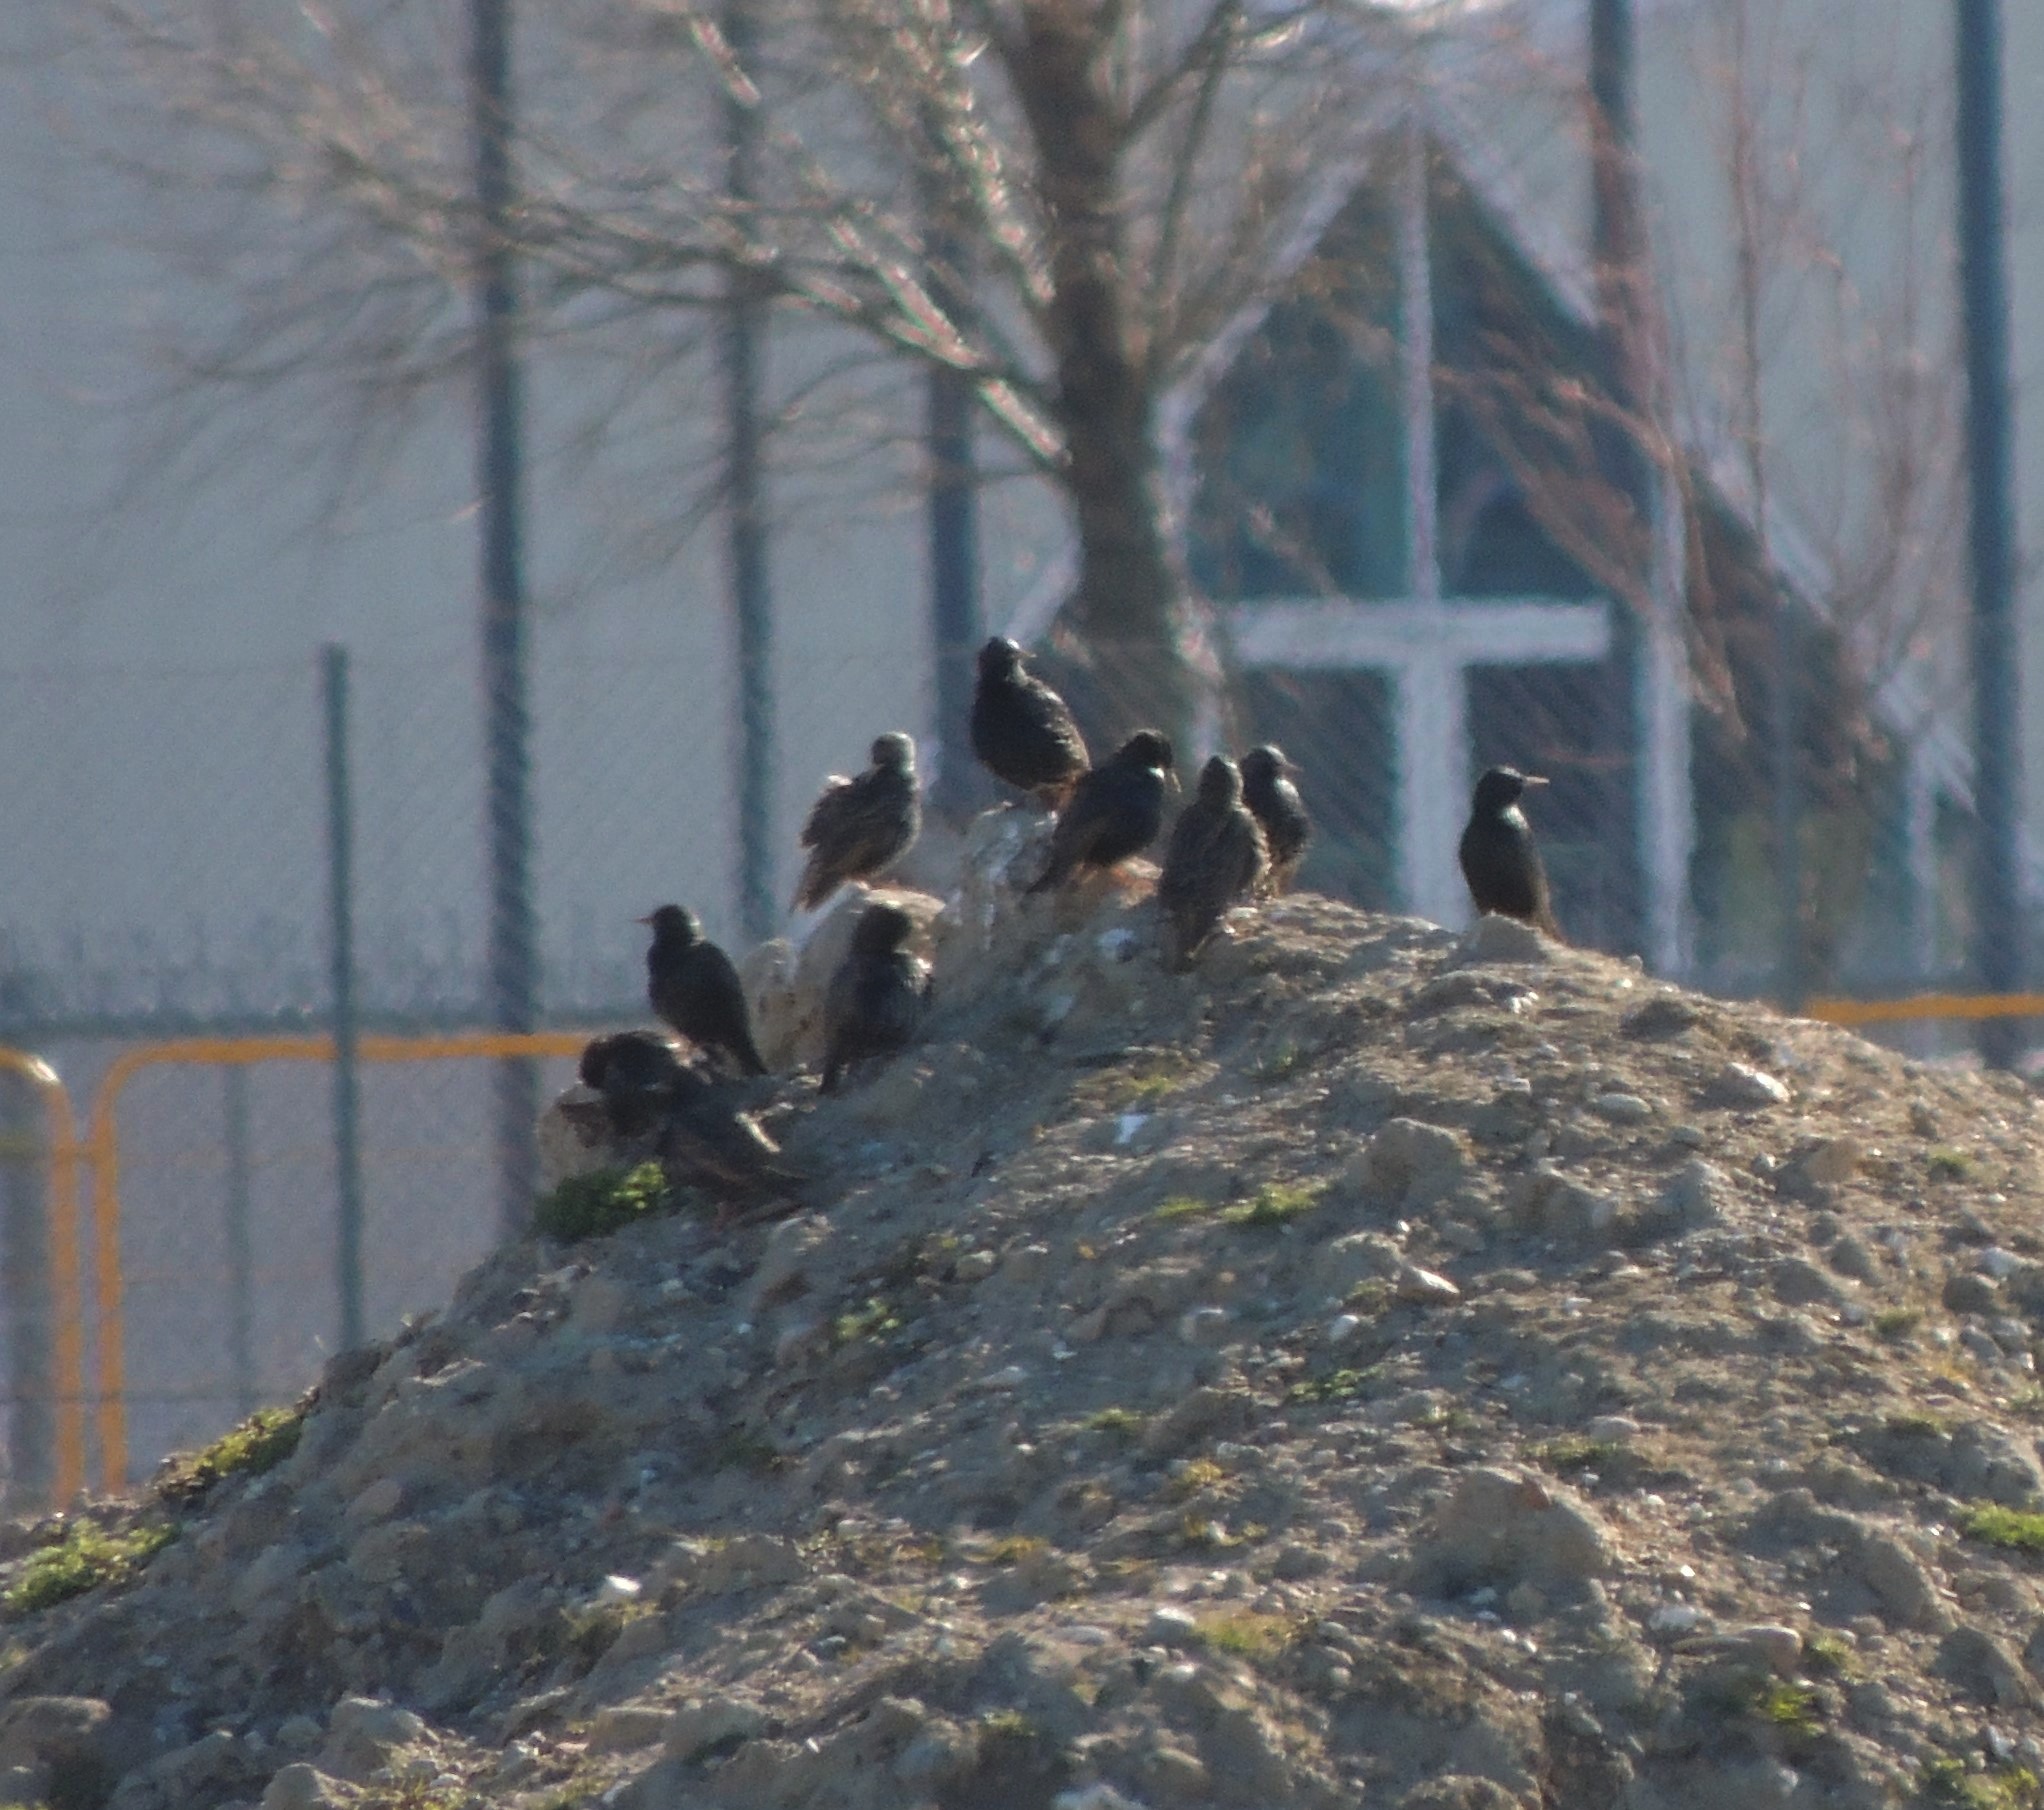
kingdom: Animalia
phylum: Chordata
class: Aves
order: Passeriformes
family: Sturnidae
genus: Sturnus
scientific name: Sturnus vulgaris
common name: Stær
